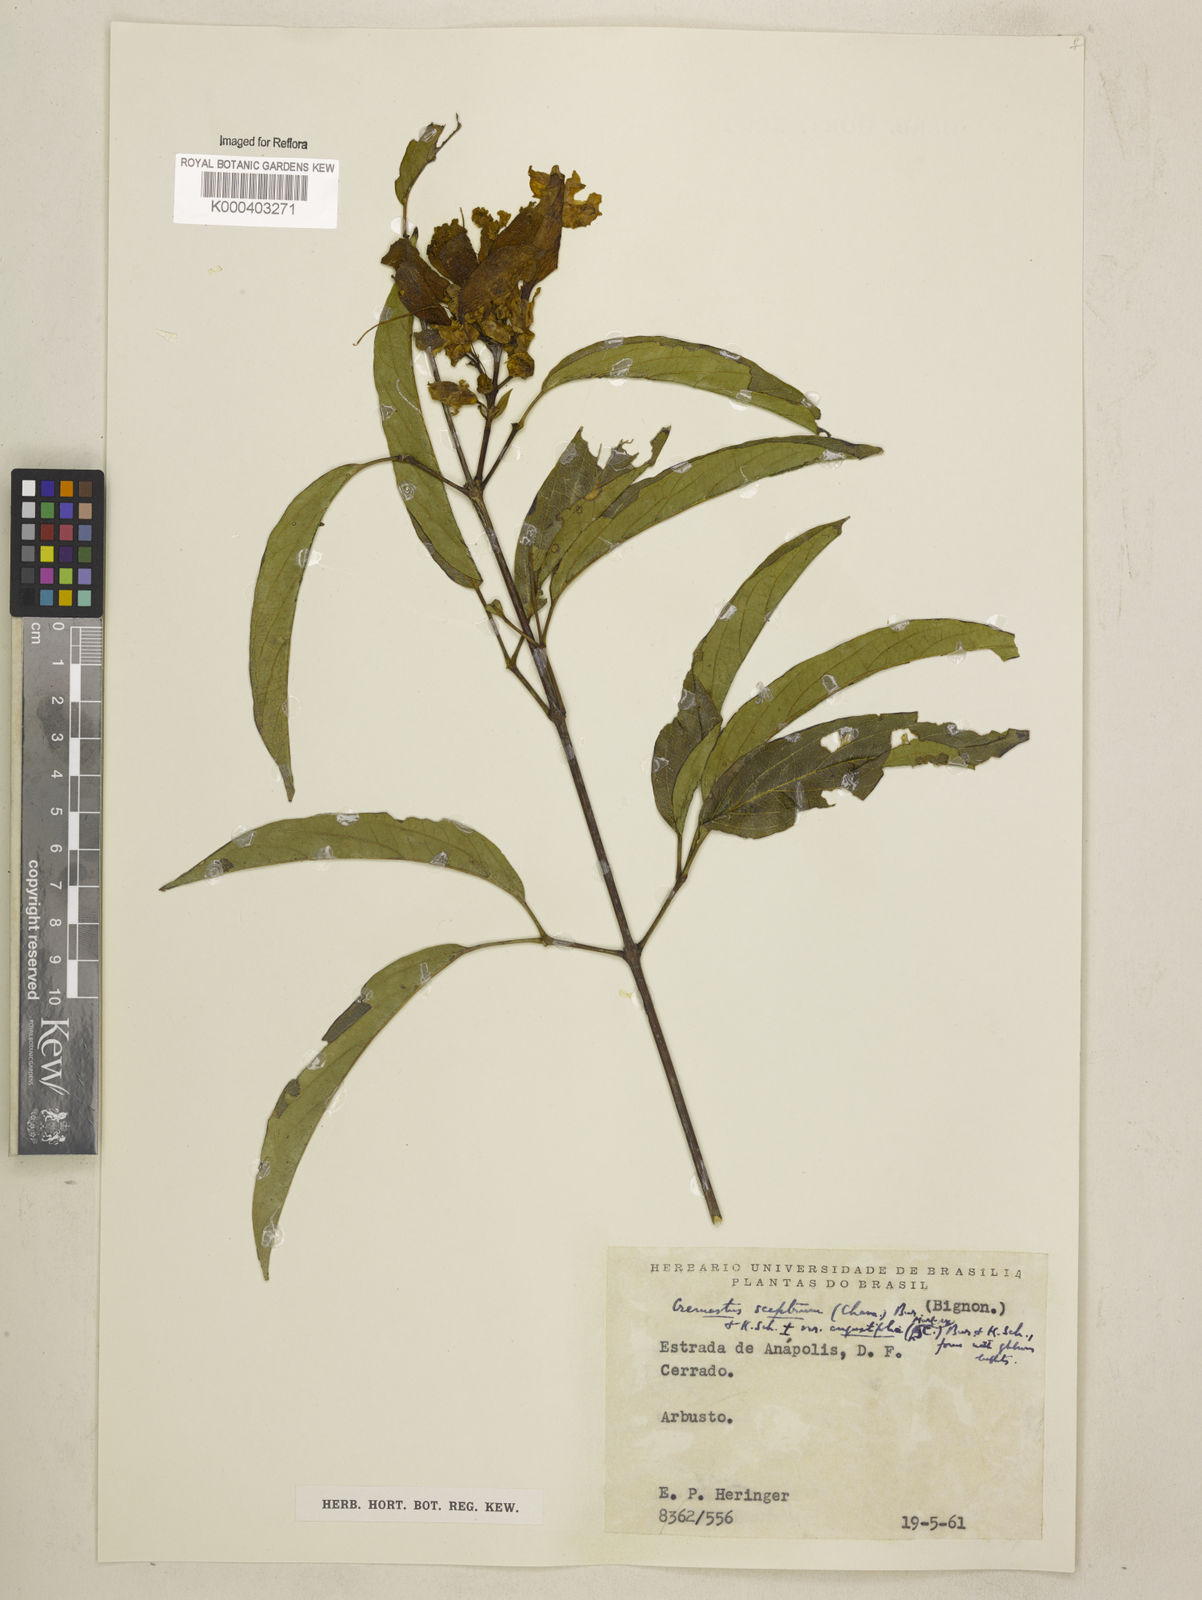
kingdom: Plantae
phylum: Tracheophyta
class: Magnoliopsida
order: Lamiales
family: Bignoniaceae
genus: Cuspidaria
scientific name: Cuspidaria sceptrum
